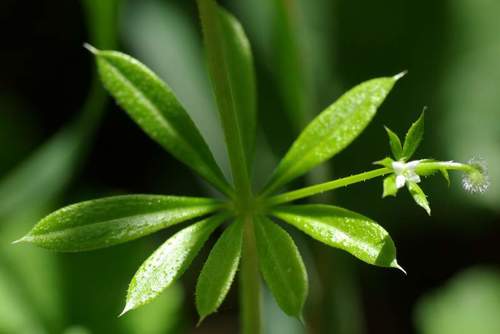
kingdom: Plantae
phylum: Tracheophyta
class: Magnoliopsida
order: Gentianales
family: Rubiaceae
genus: Galium
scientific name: Galium aparine
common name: Cleavers
